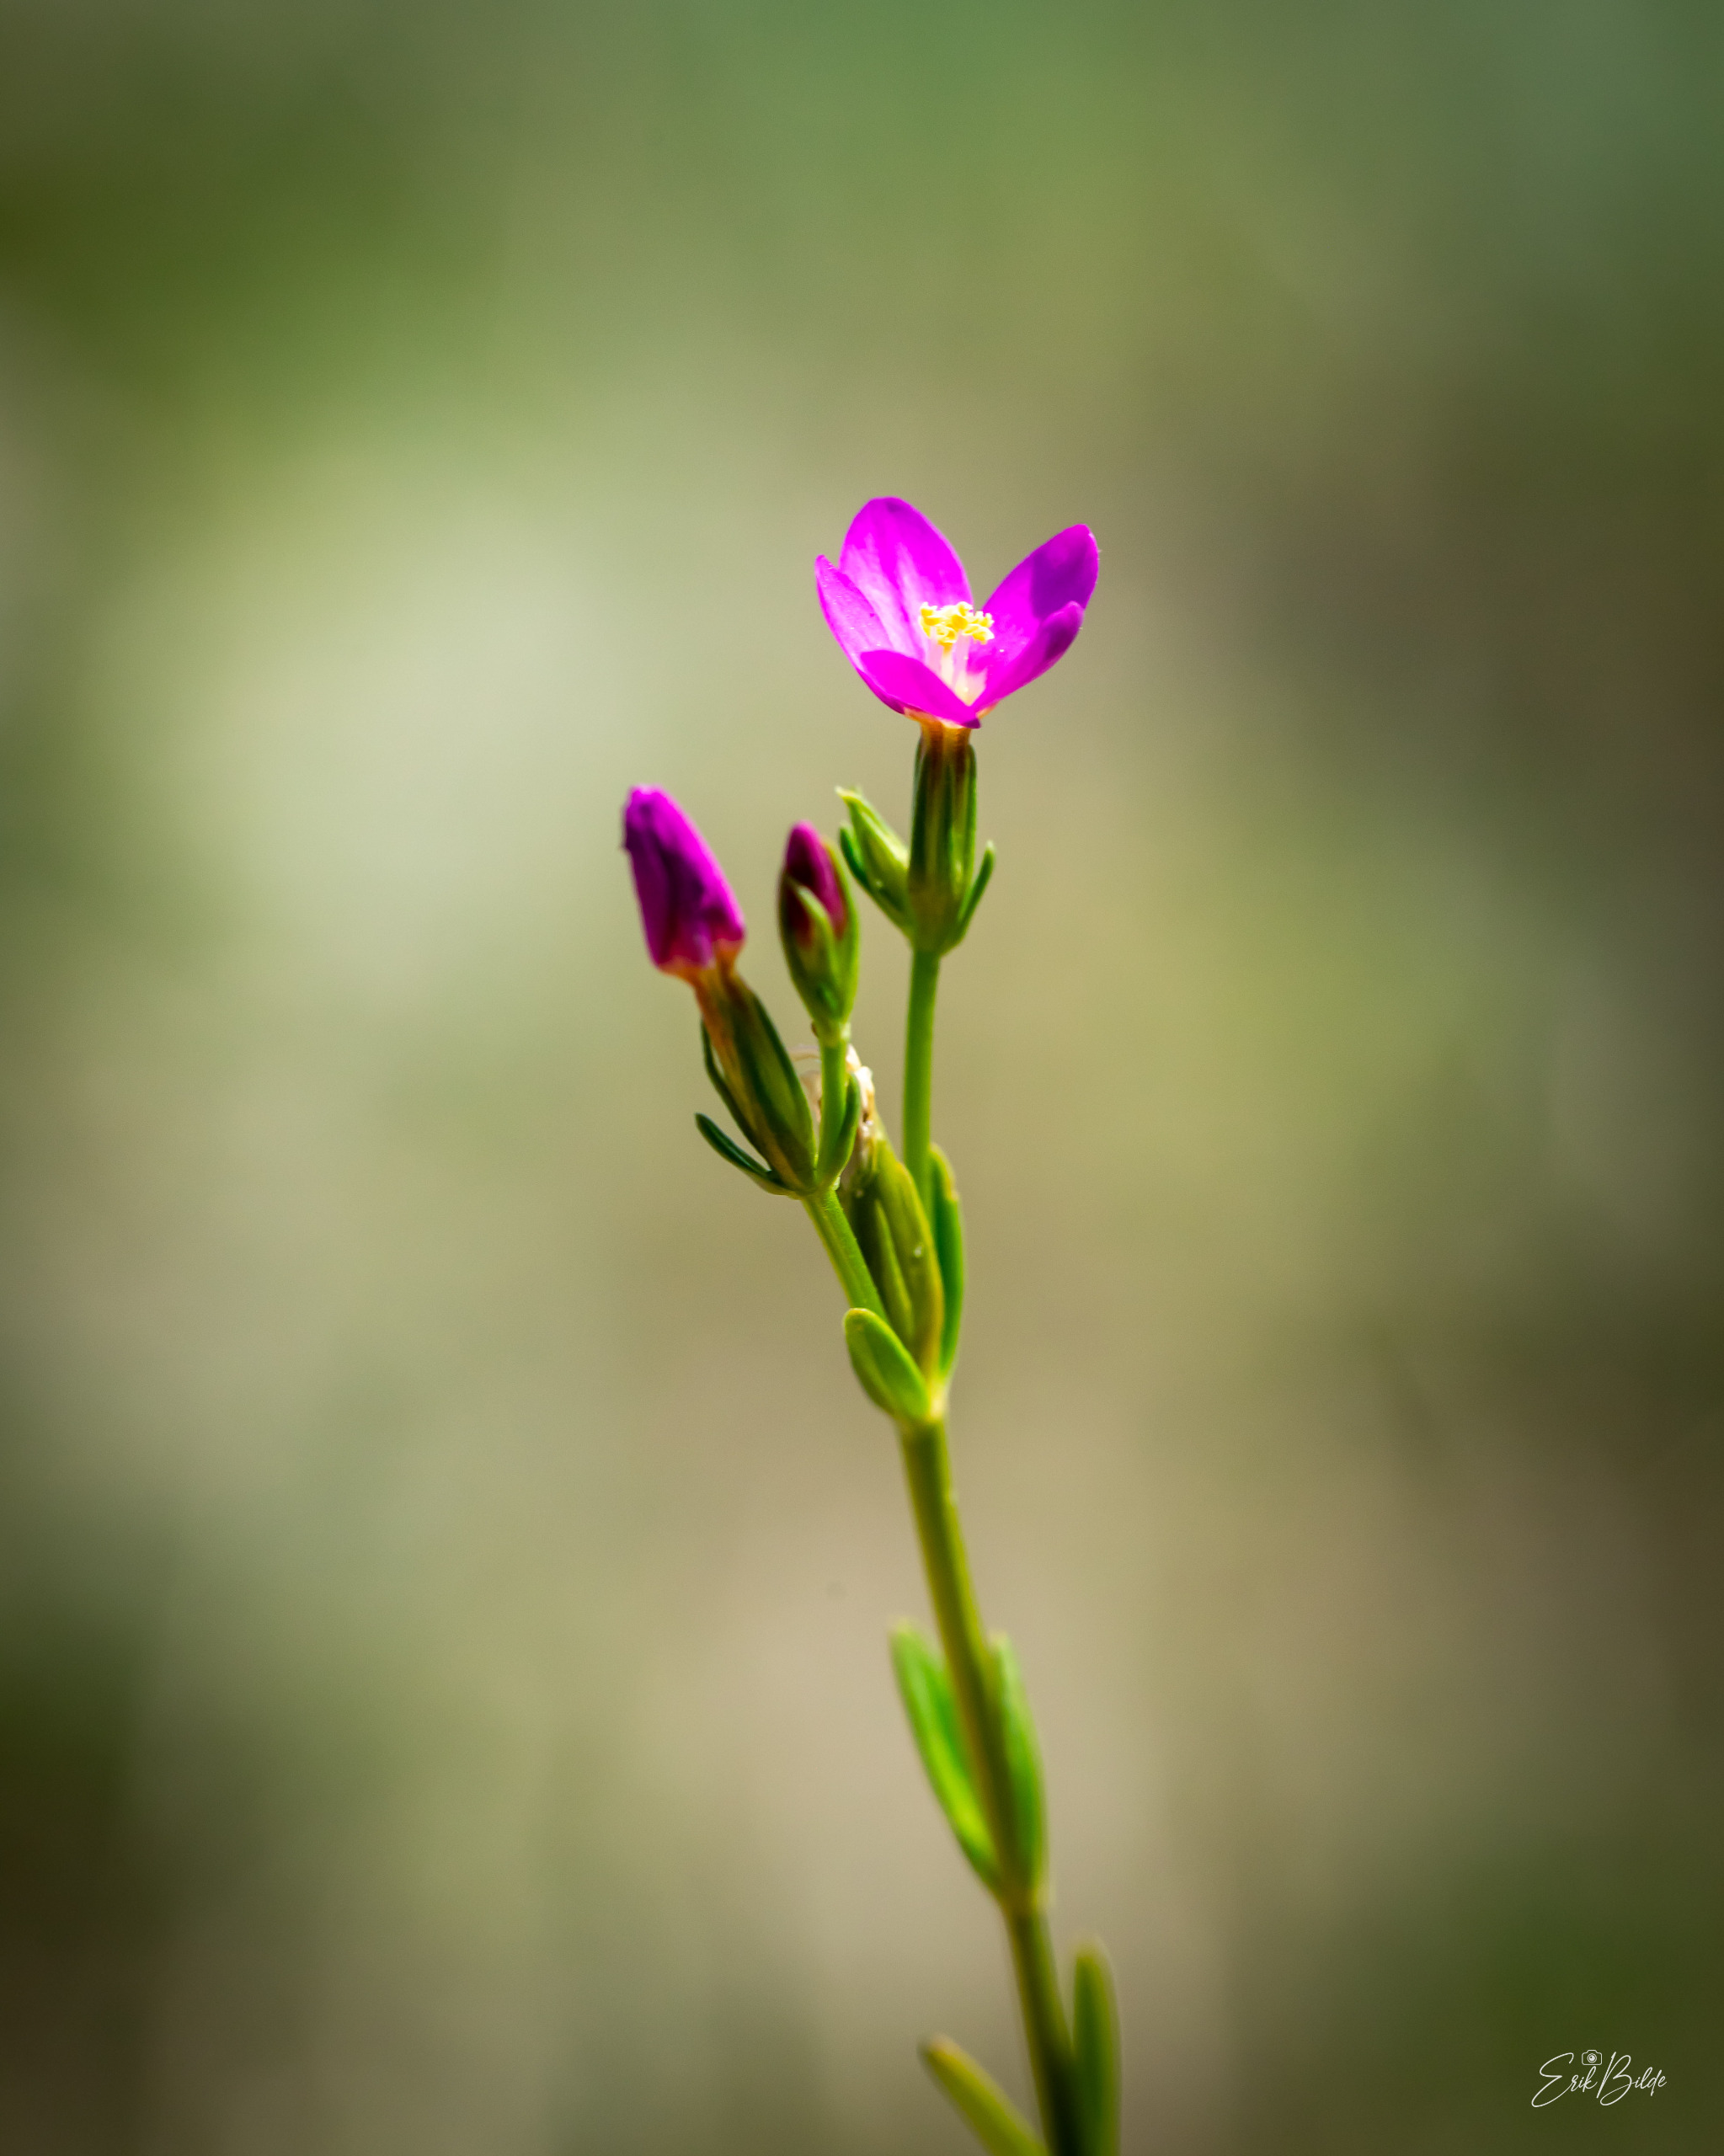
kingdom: Plantae
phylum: Tracheophyta
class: Magnoliopsida
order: Gentianales
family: Gentianaceae
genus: Centaurium
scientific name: Centaurium littorale
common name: Strand-tusindgylden
